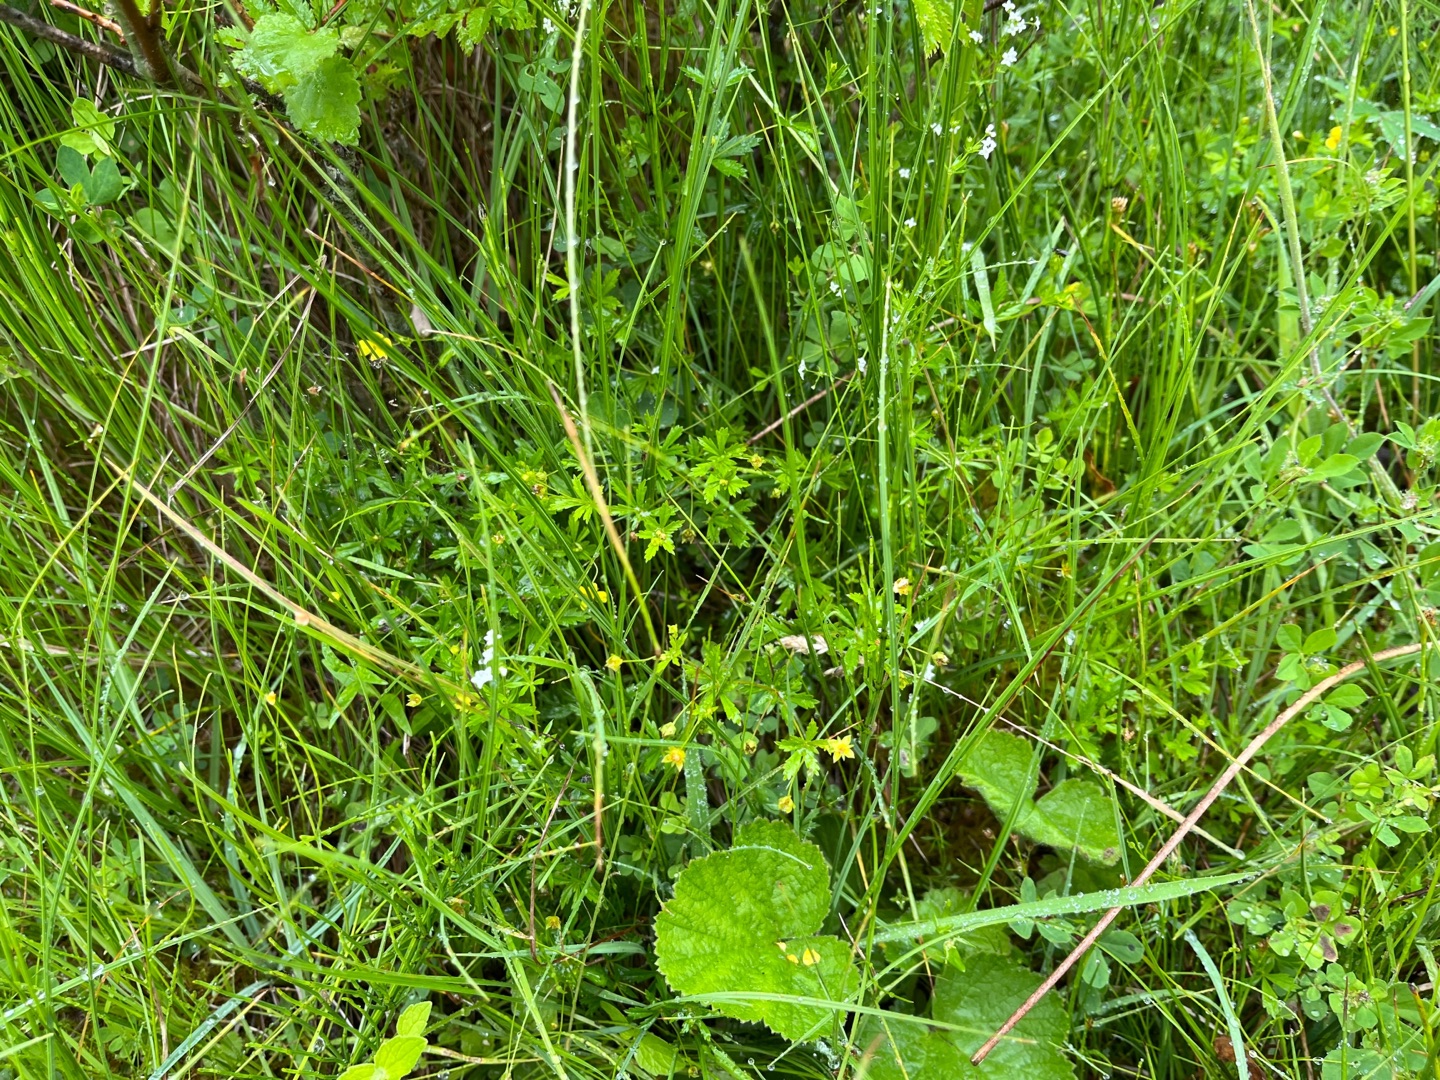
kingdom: Plantae
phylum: Tracheophyta
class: Magnoliopsida
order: Rosales
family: Rosaceae
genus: Potentilla
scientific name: Potentilla erecta
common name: Tormentil
